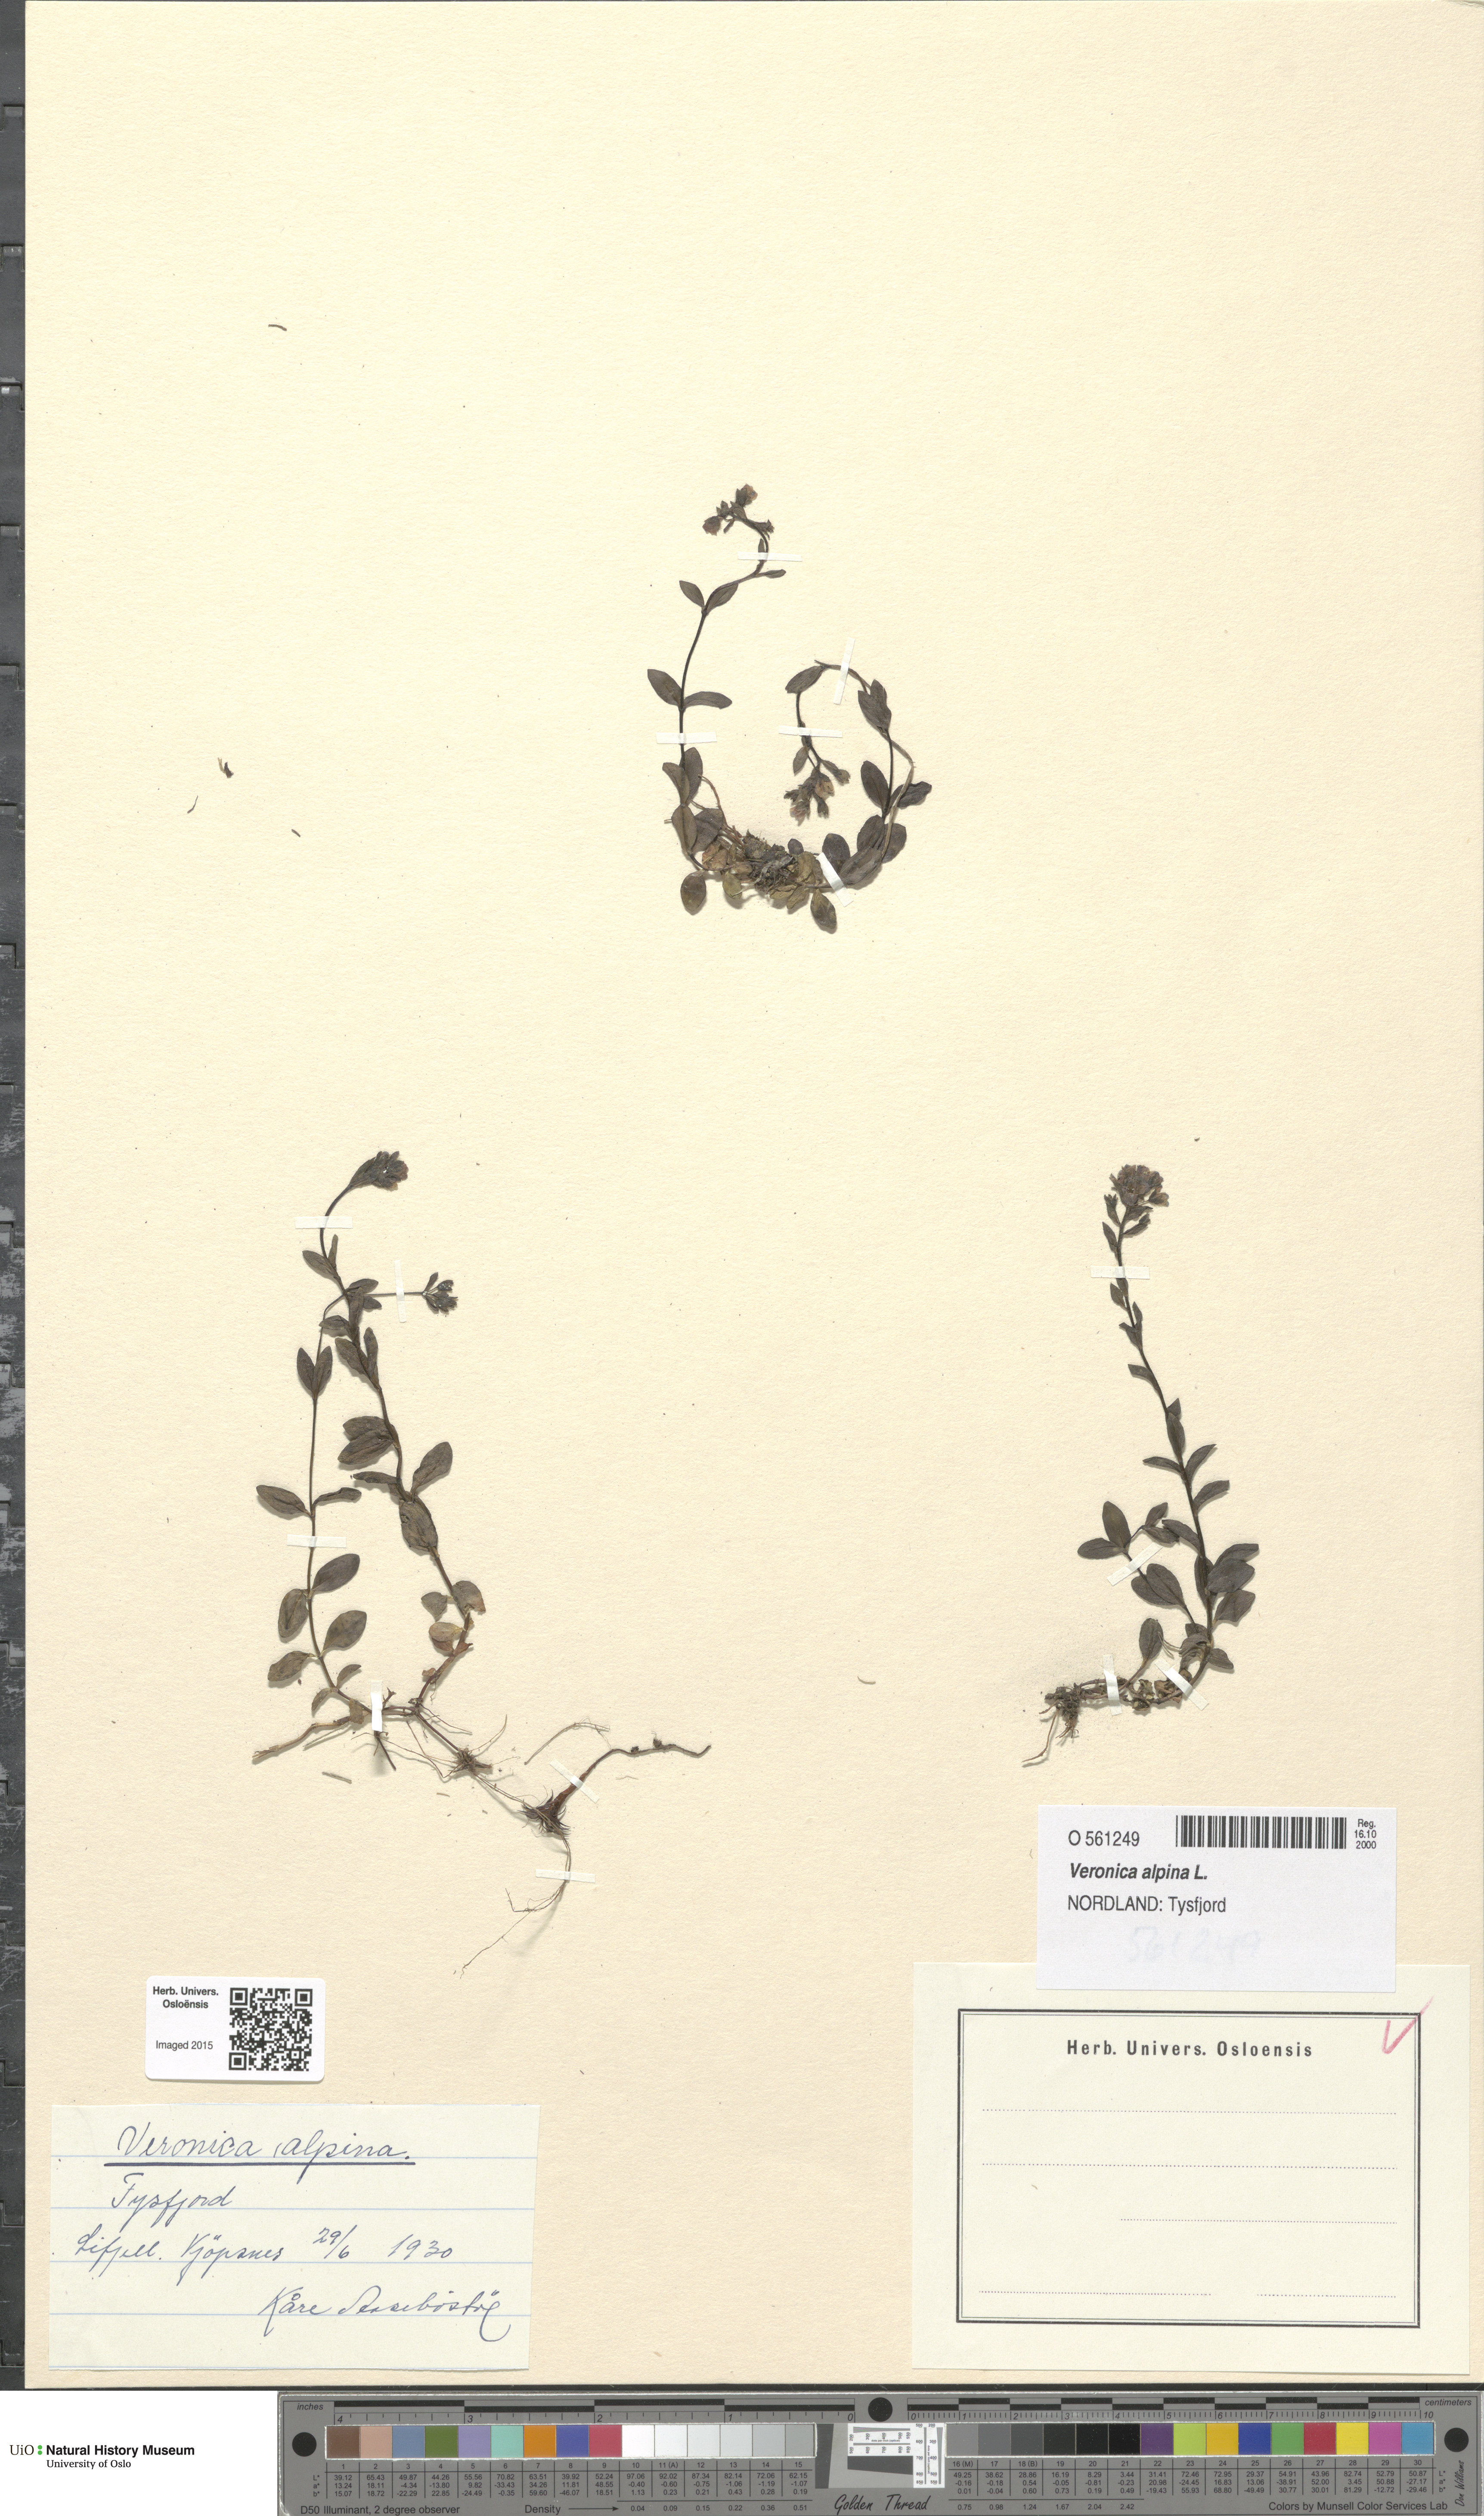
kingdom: Plantae
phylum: Tracheophyta
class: Magnoliopsida
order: Lamiales
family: Plantaginaceae
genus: Veronica
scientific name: Veronica alpina
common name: Alpine speedwell
